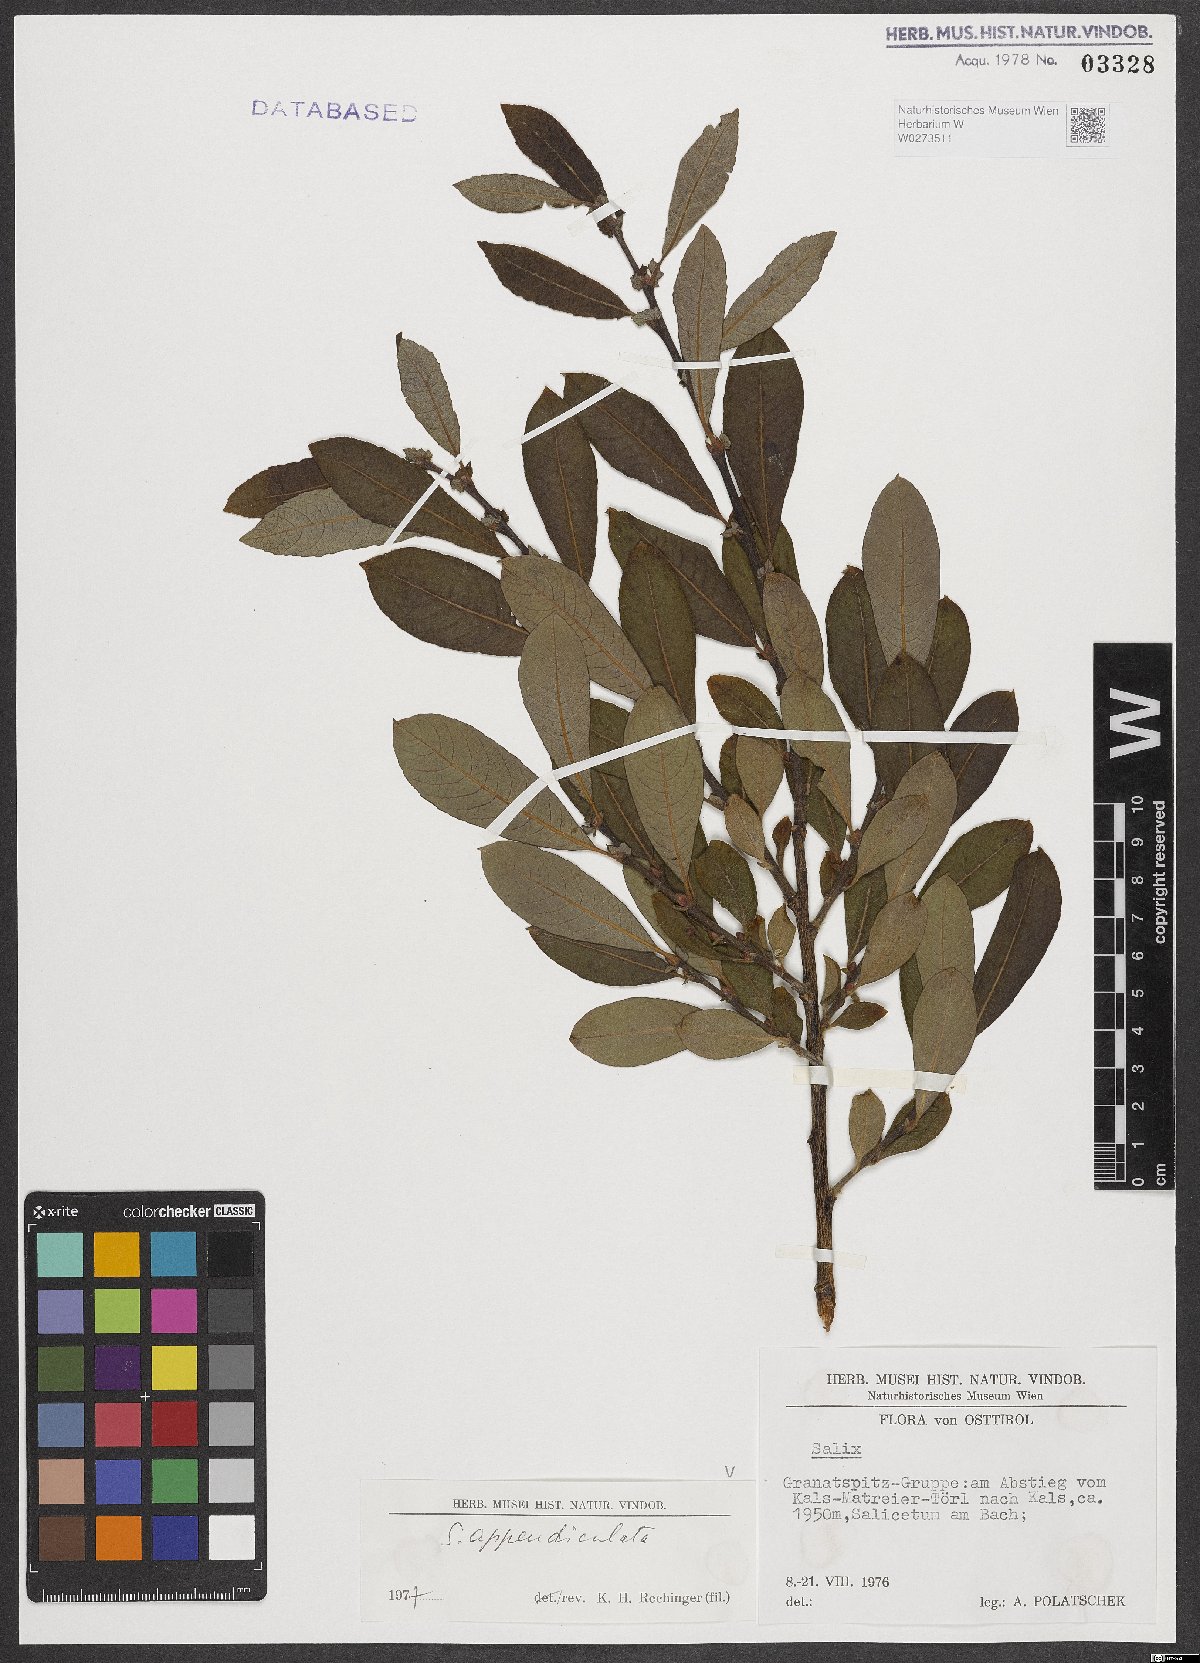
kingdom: Plantae
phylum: Tracheophyta
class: Magnoliopsida
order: Malpighiales
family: Salicaceae
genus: Salix
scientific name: Salix appendiculata
